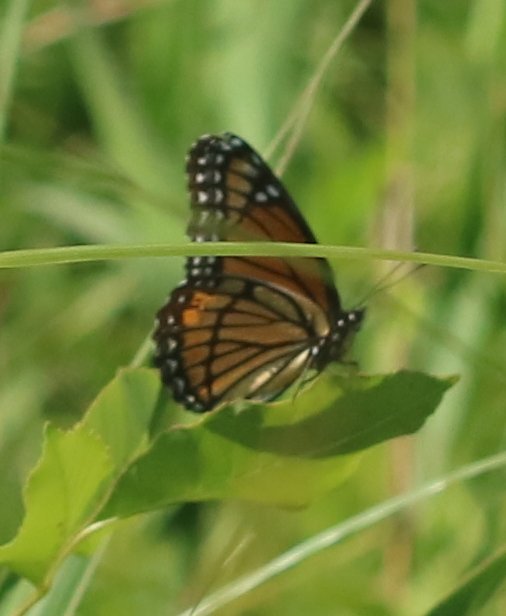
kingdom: Animalia
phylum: Arthropoda
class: Insecta
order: Lepidoptera
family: Nymphalidae
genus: Limenitis
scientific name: Limenitis archippus
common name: Viceroy
